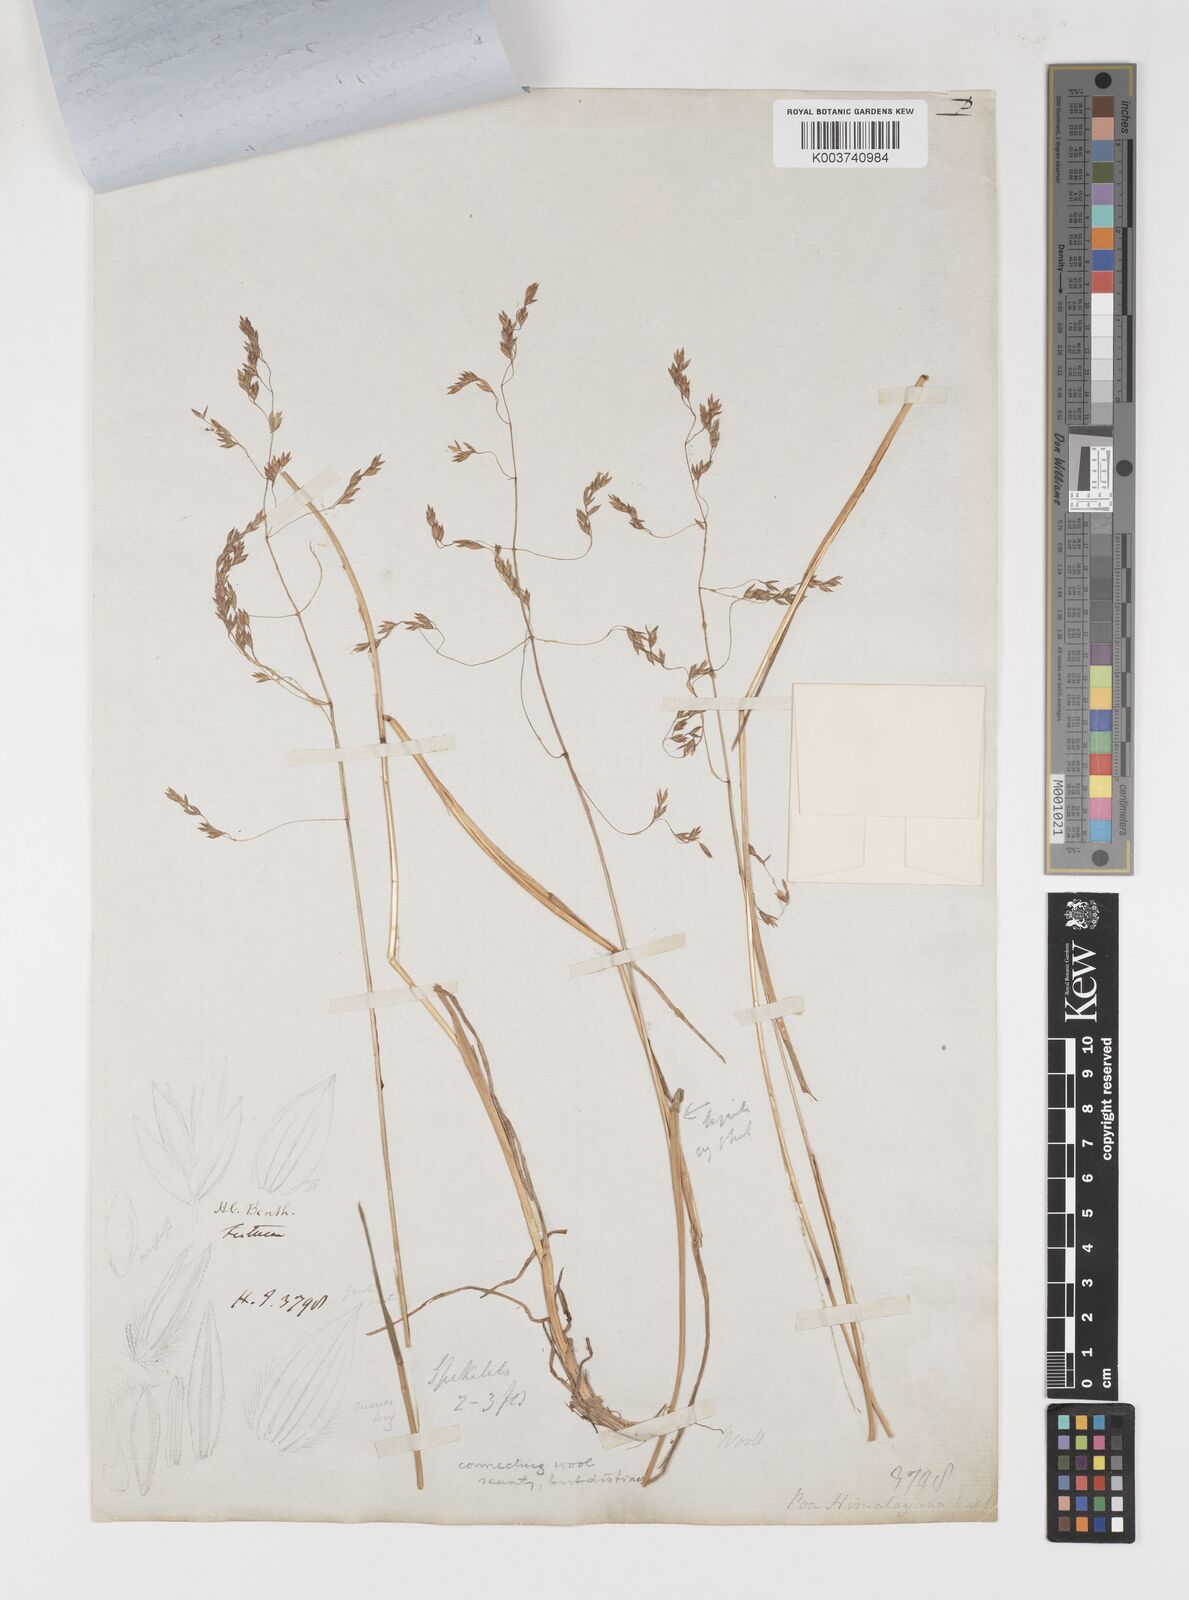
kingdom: Plantae
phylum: Tracheophyta
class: Liliopsida
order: Poales
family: Poaceae
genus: Poa
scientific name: Poa falconeri
